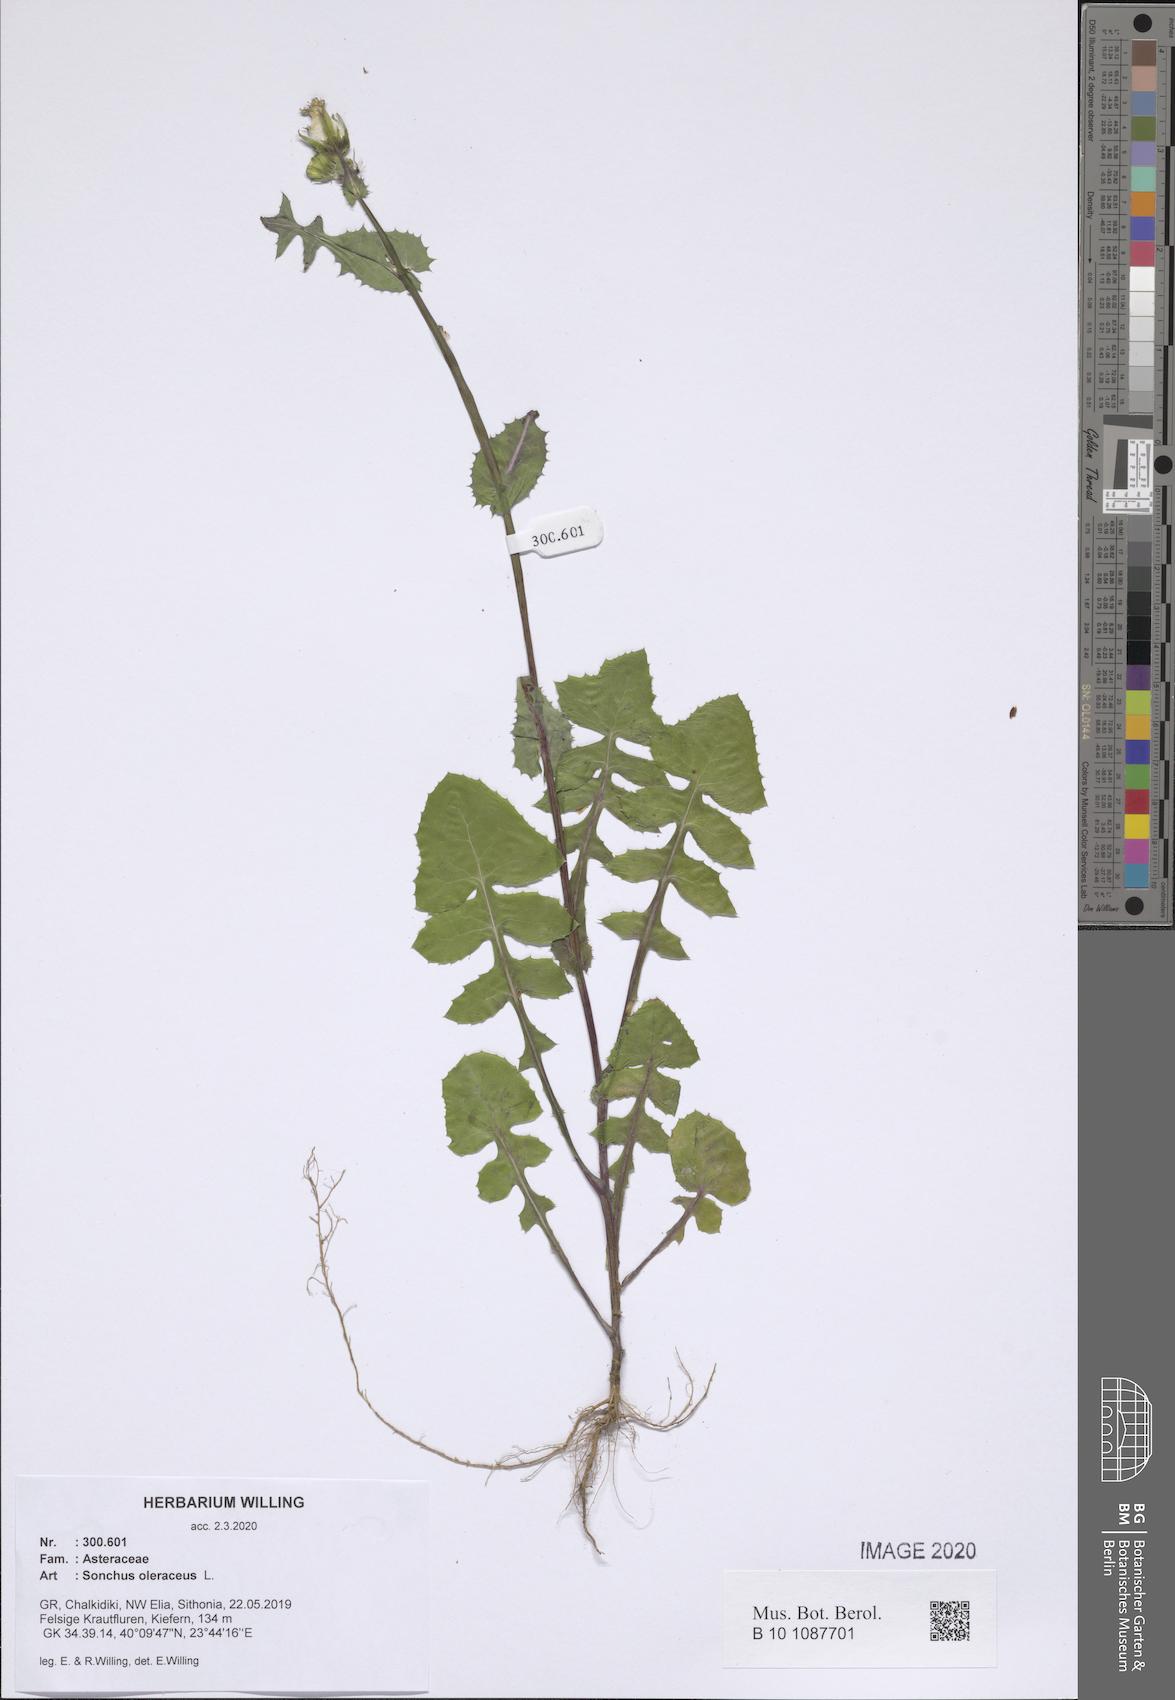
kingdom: Plantae
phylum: Tracheophyta
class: Magnoliopsida
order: Asterales
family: Asteraceae
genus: Sonchus
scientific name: Sonchus oleraceus
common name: Common sowthistle
